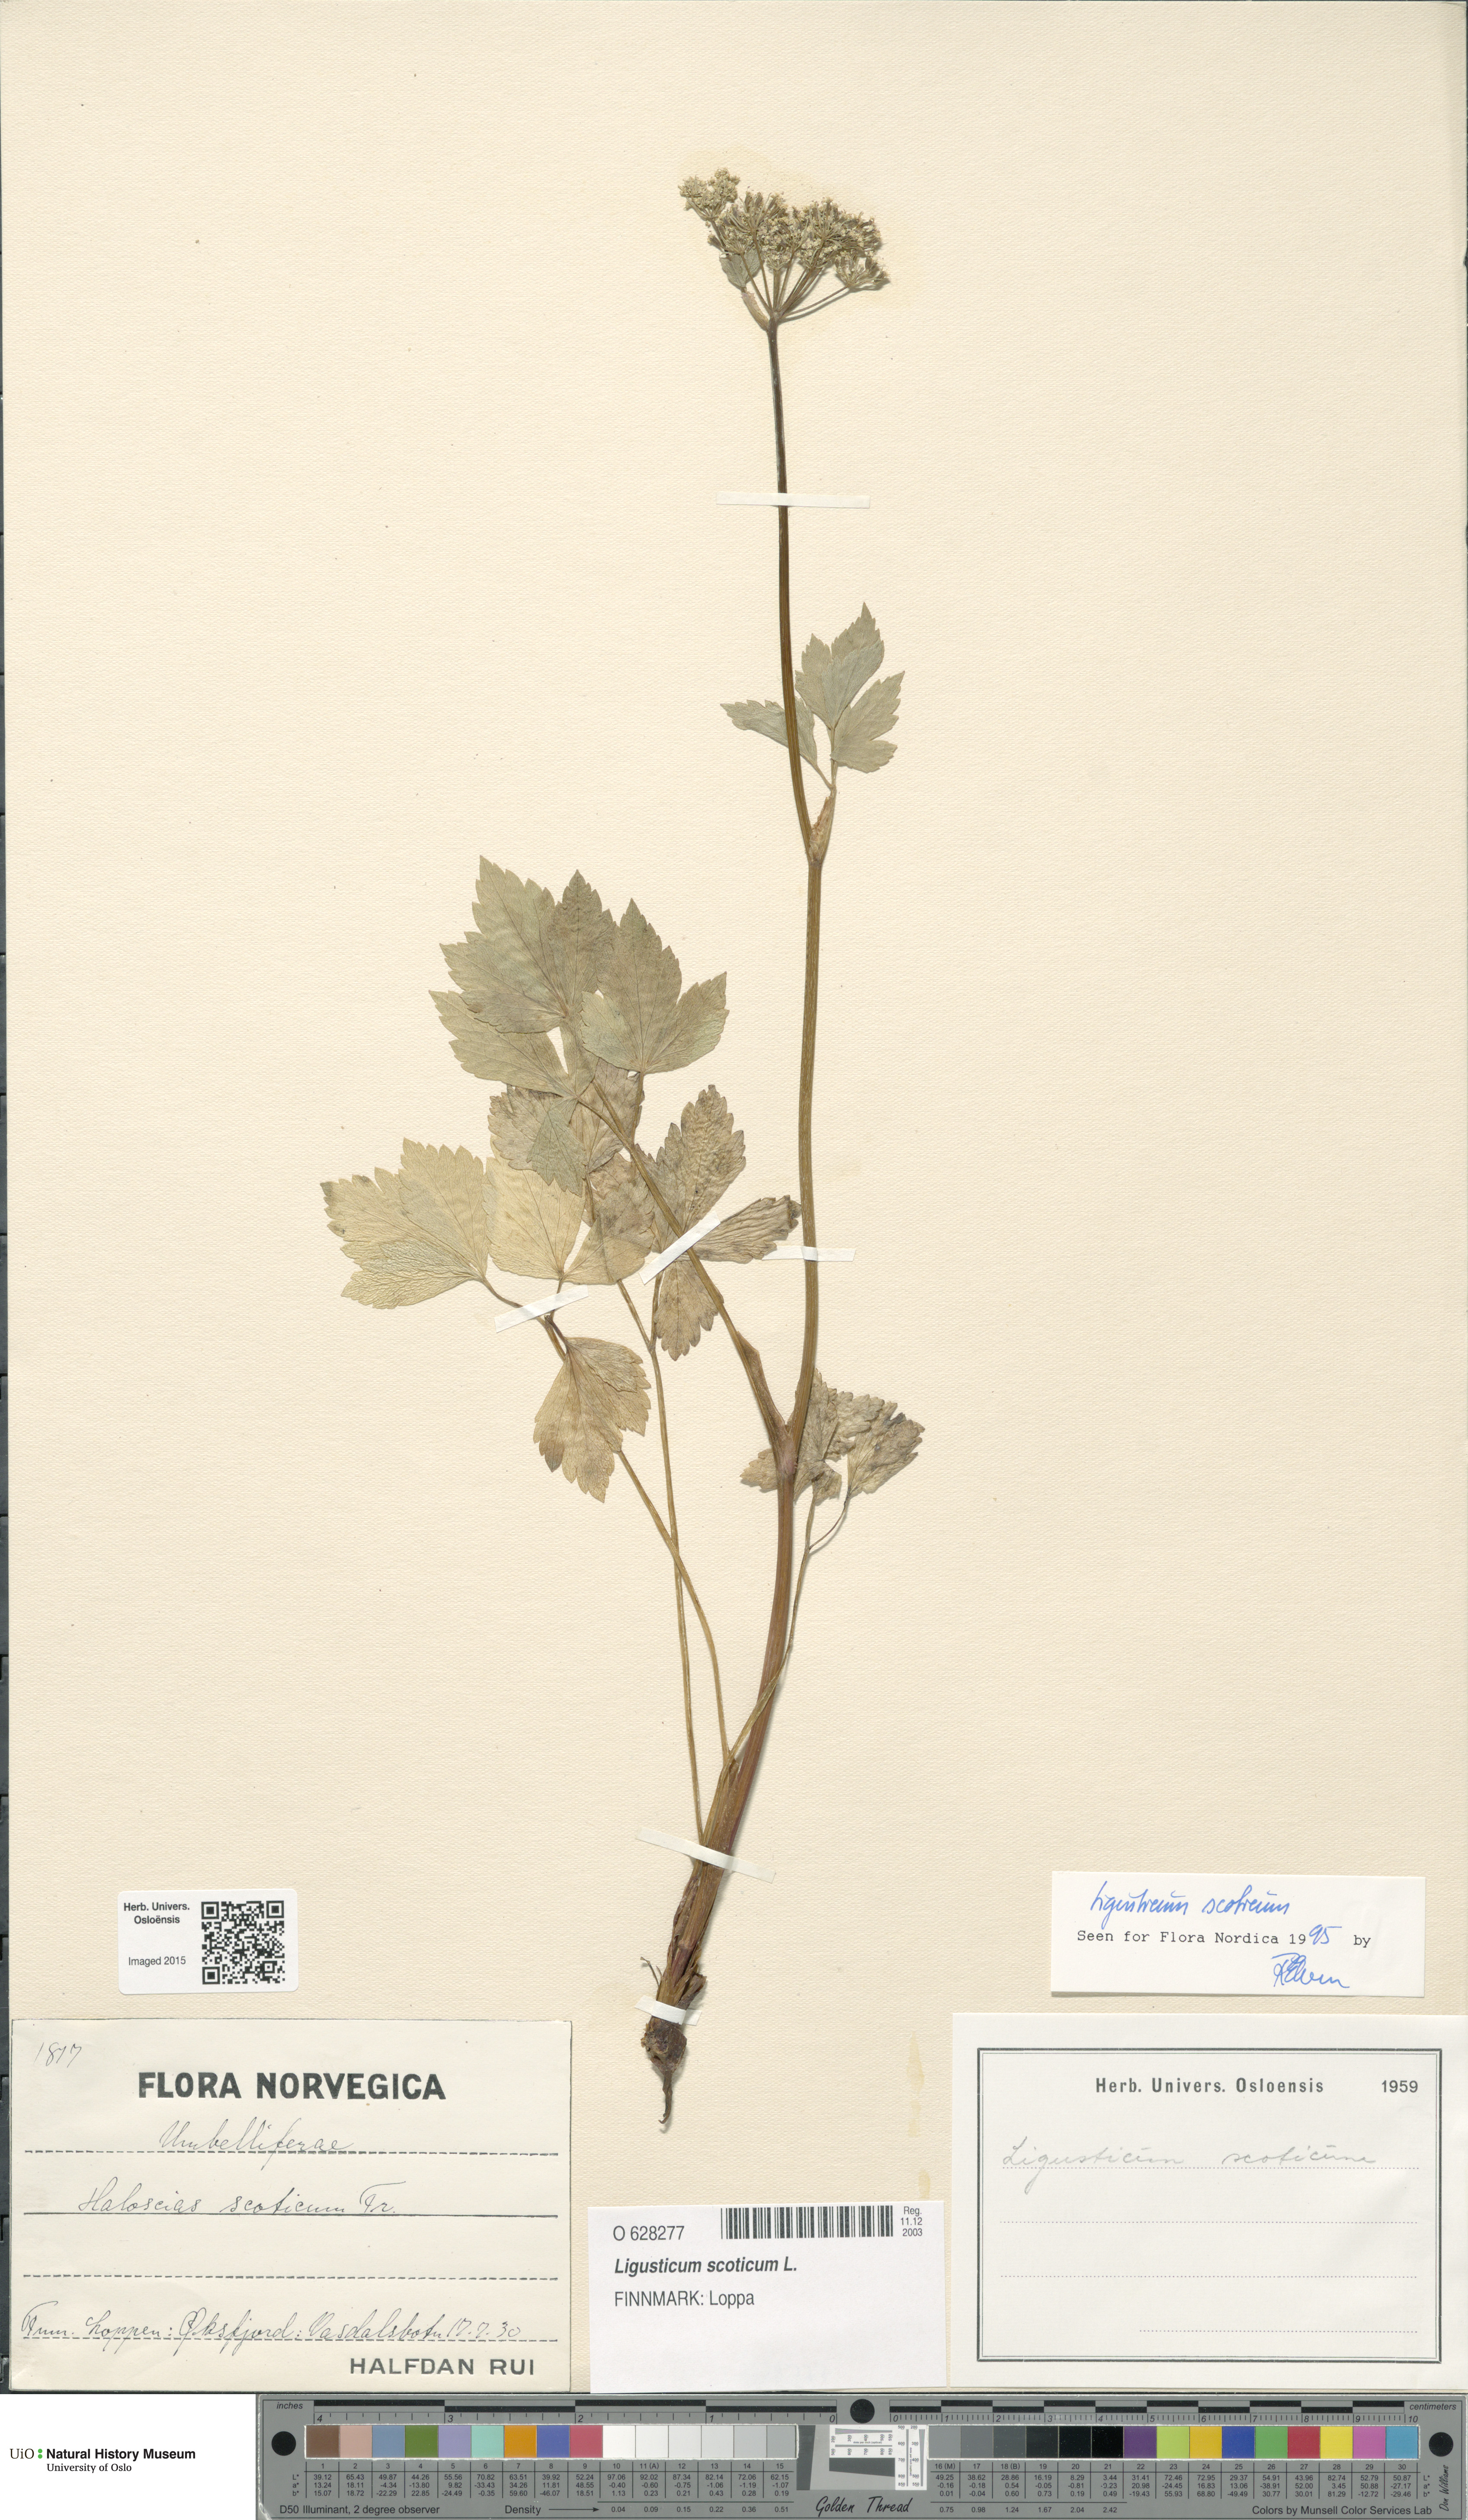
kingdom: Plantae
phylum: Tracheophyta
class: Magnoliopsida
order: Apiales
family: Apiaceae
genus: Ligusticum
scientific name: Ligusticum scothicum
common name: Beach lovage
